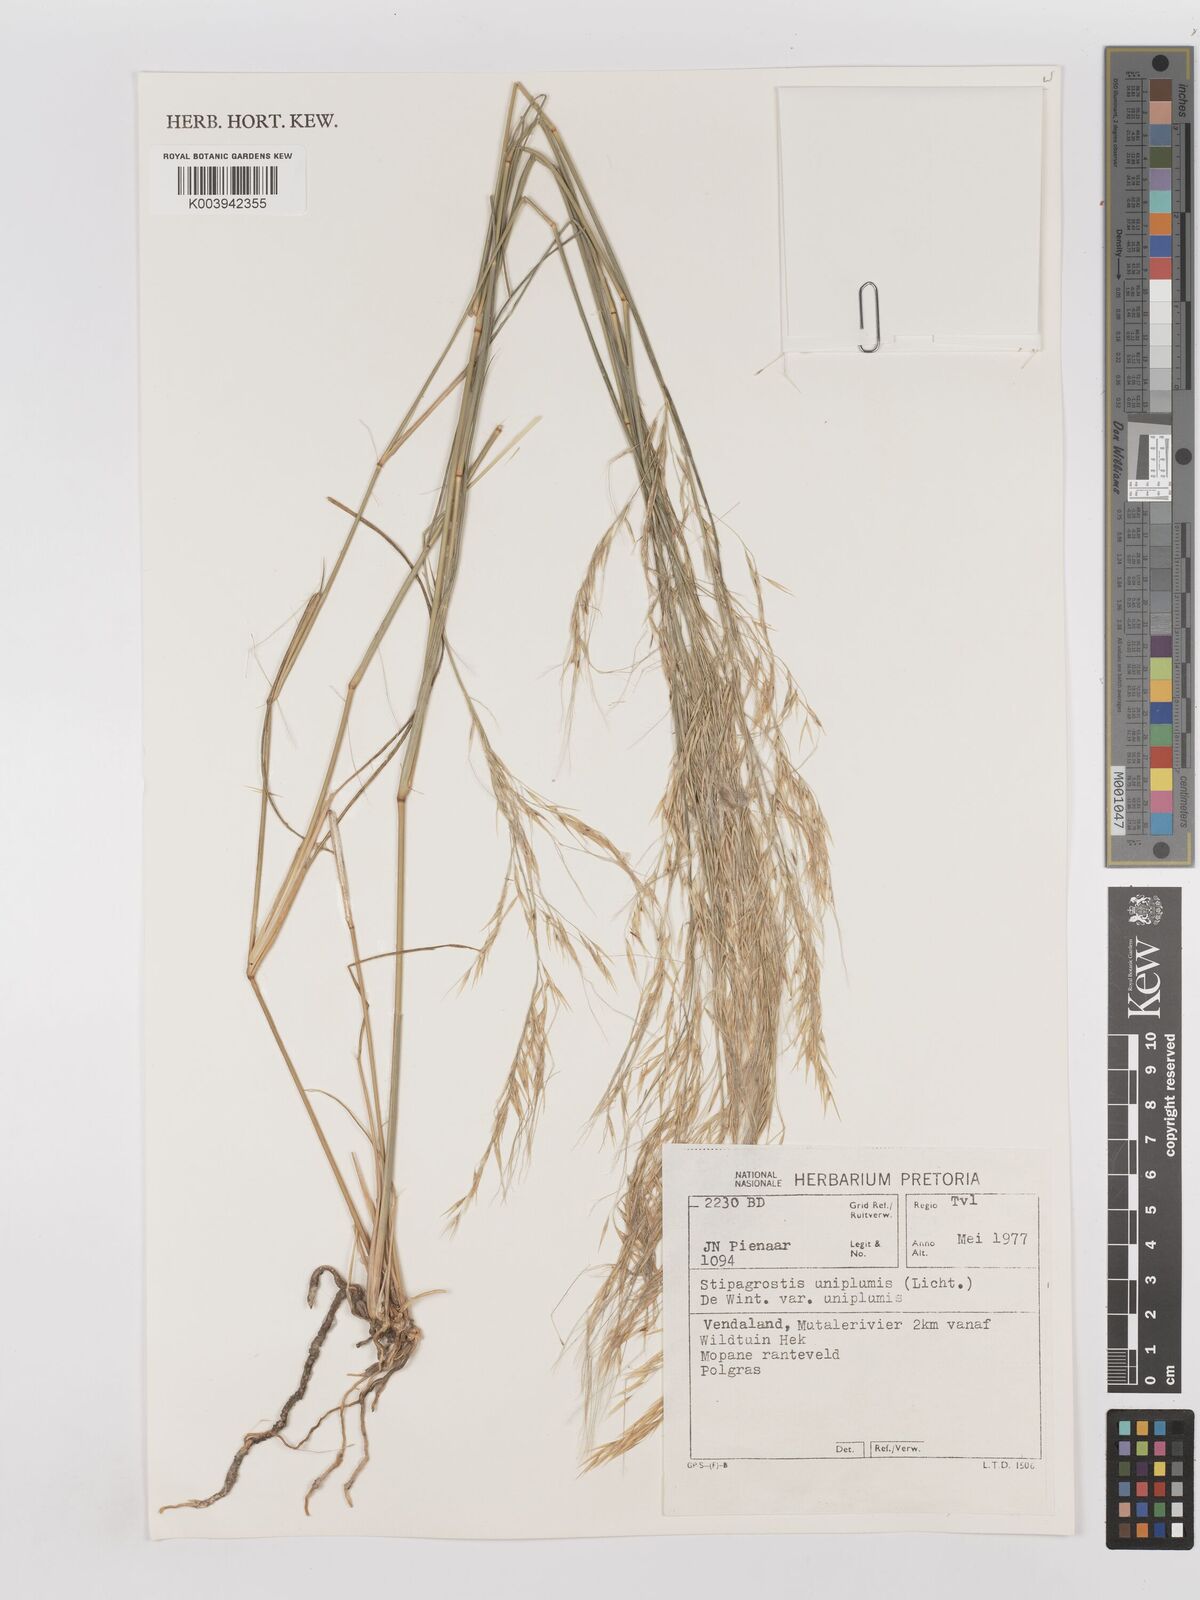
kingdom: Plantae
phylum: Tracheophyta
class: Liliopsida
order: Poales
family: Poaceae
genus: Stipagrostis
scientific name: Stipagrostis uniplumis
